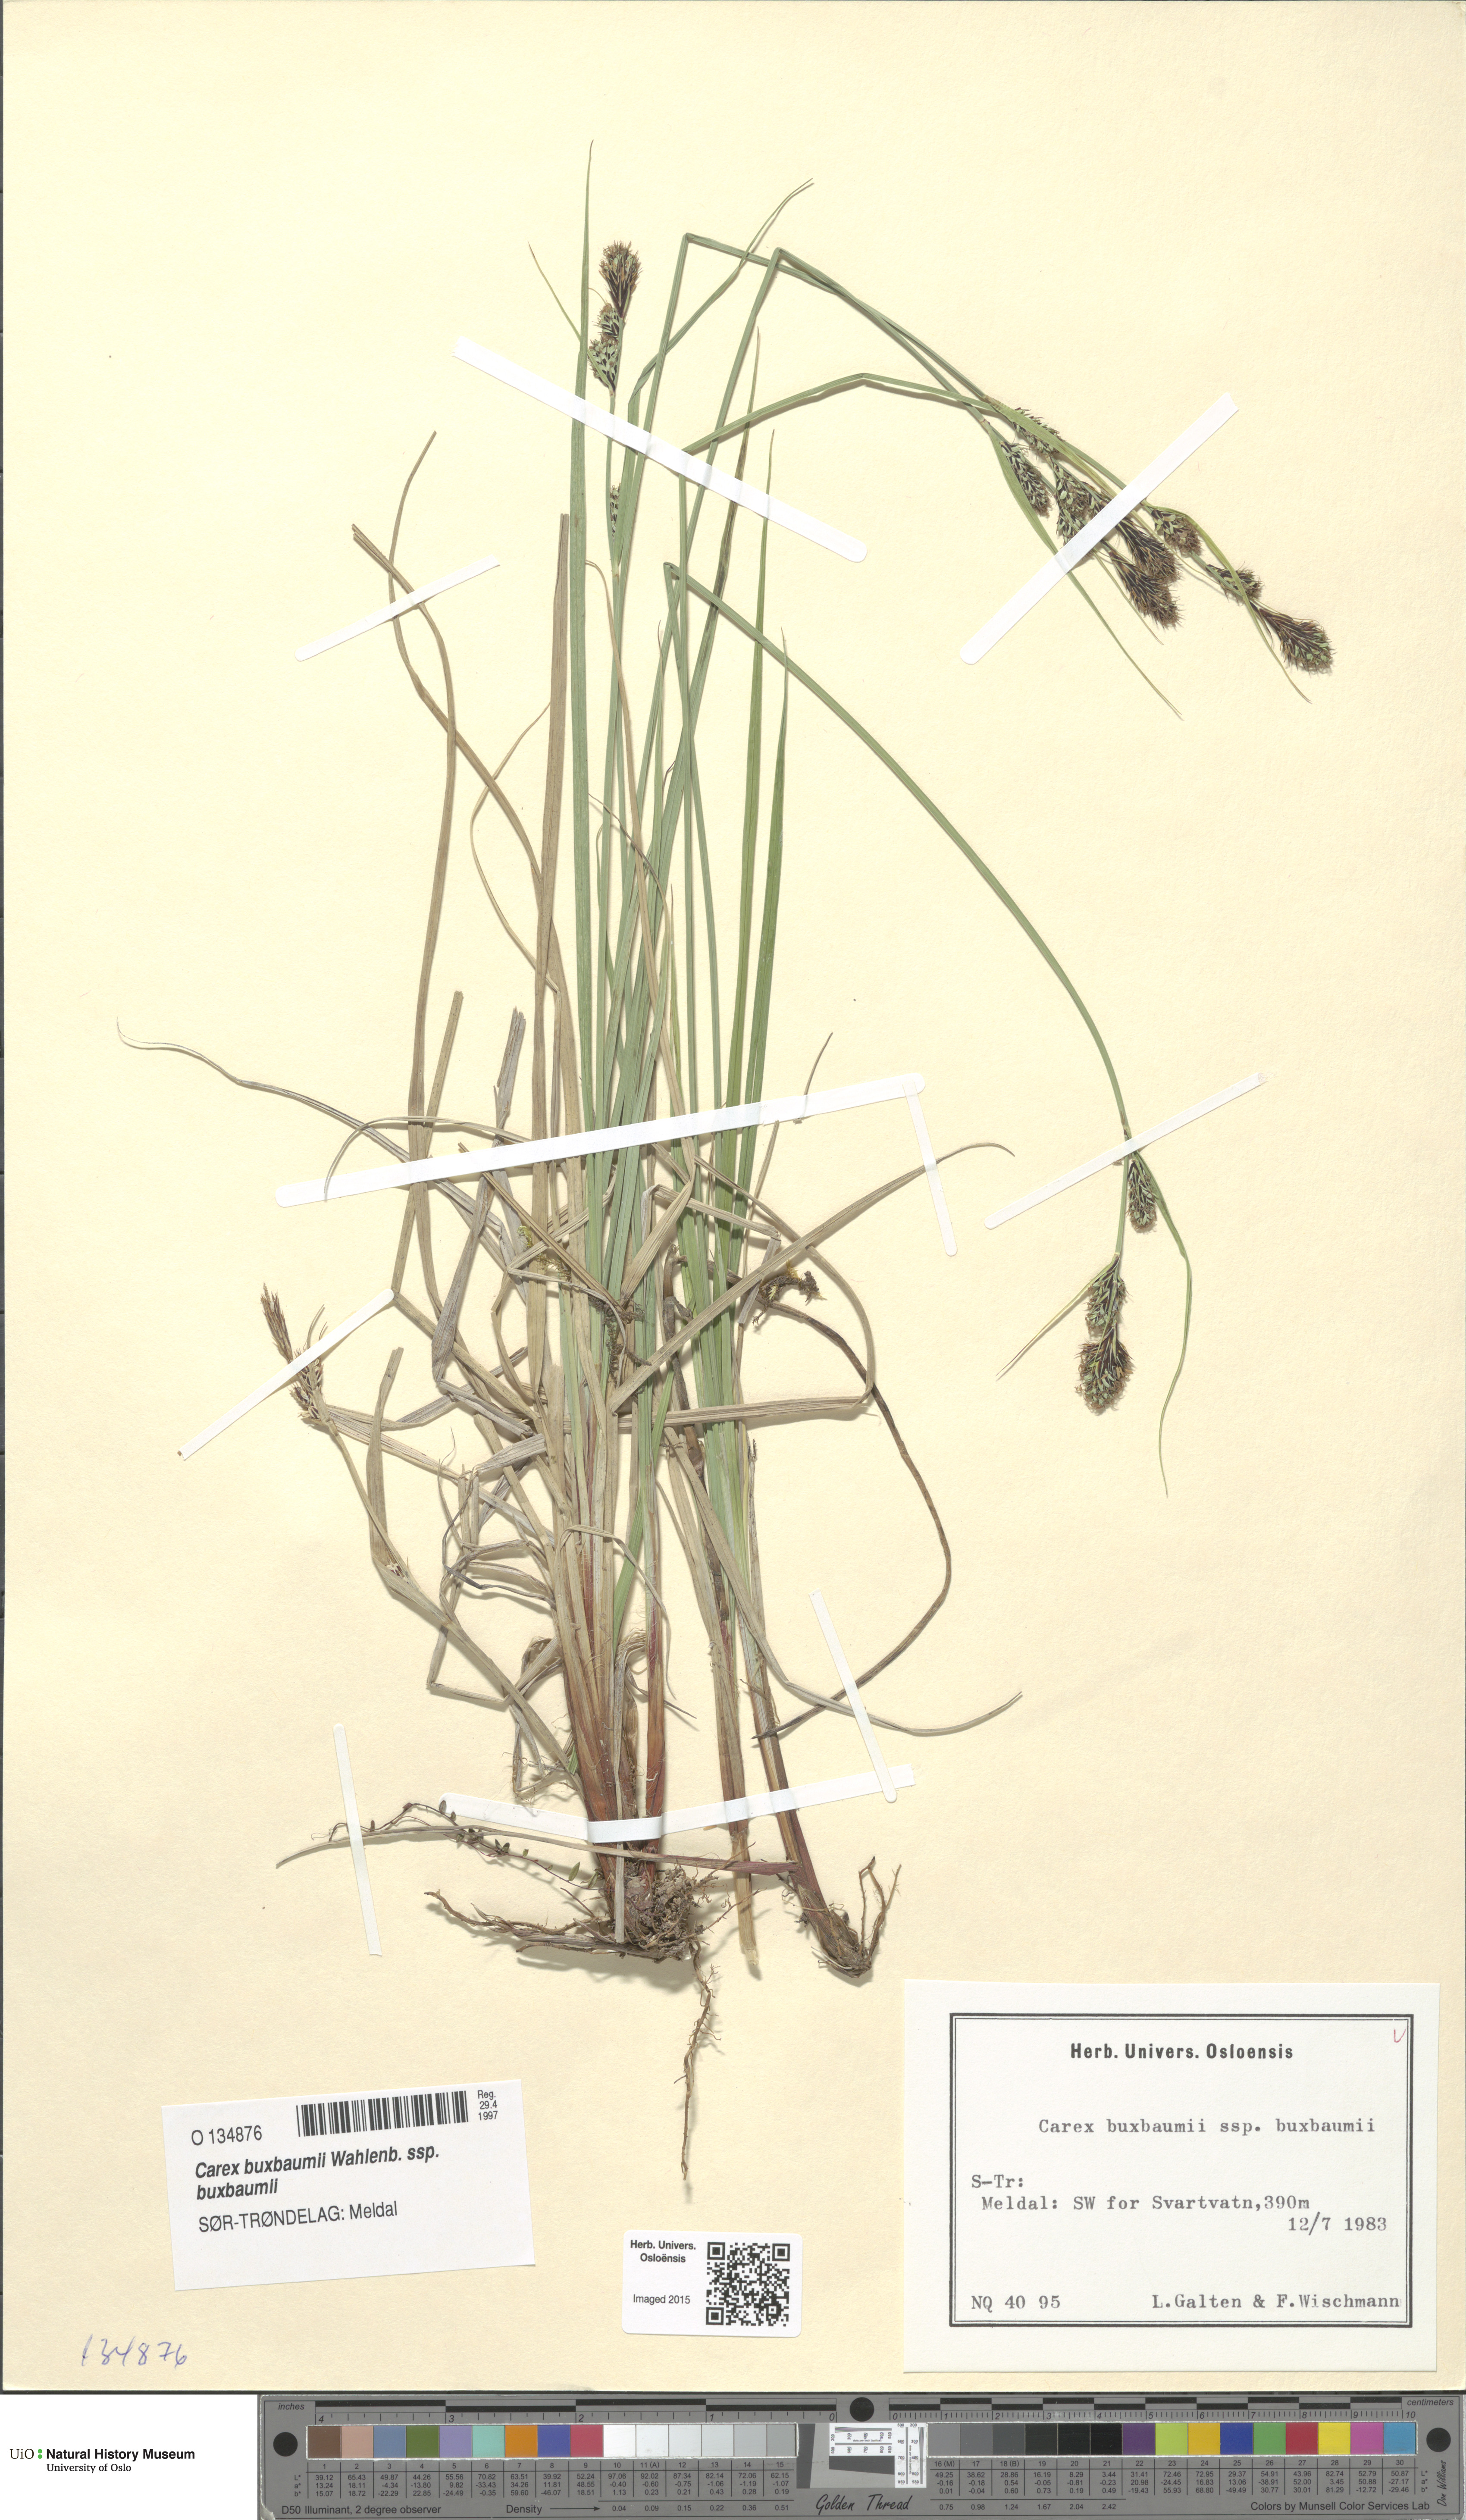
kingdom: Plantae
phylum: Tracheophyta
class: Liliopsida
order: Poales
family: Cyperaceae
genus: Carex
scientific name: Carex buxbaumii
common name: Club sedge
